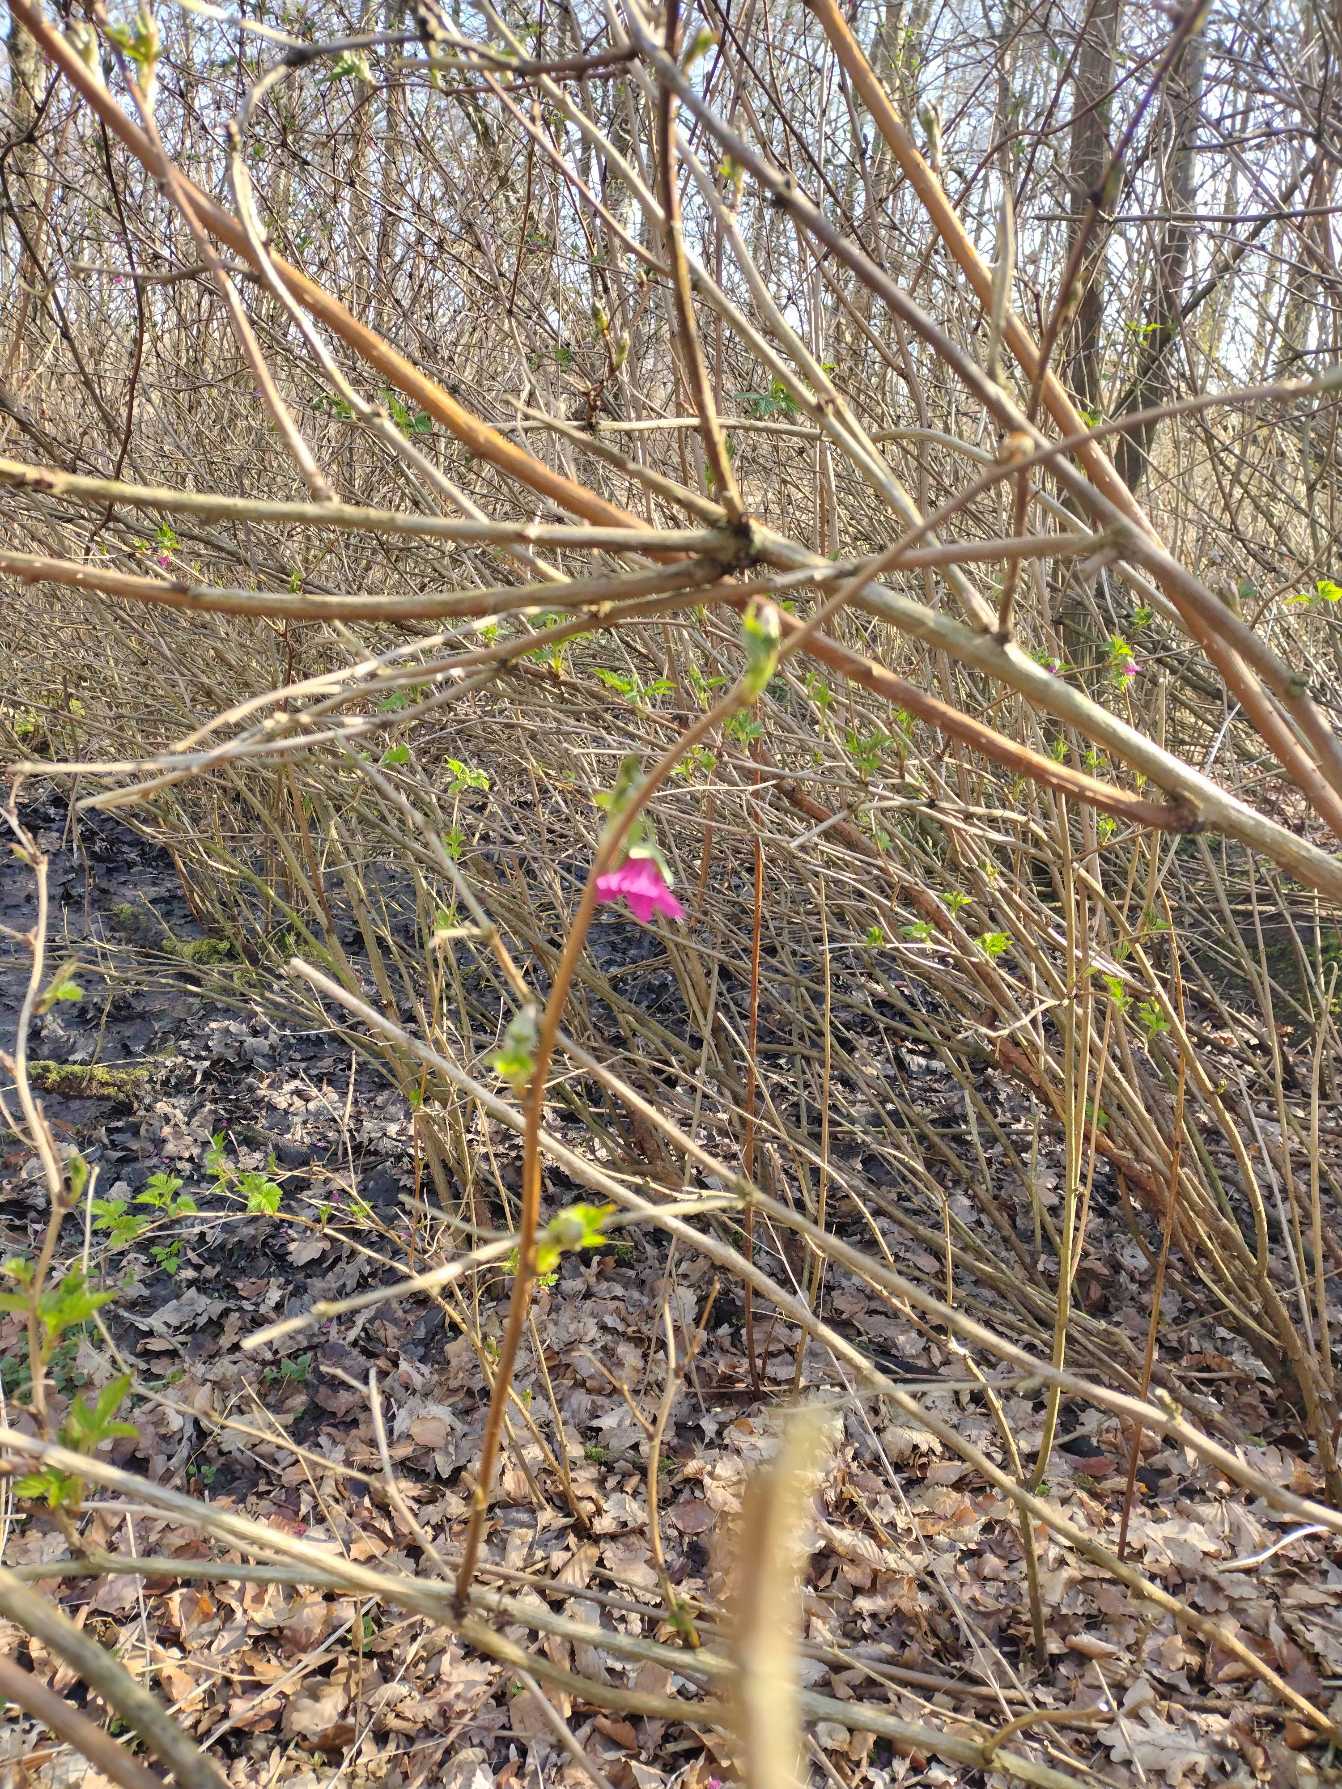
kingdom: Plantae
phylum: Tracheophyta
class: Magnoliopsida
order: Rosales
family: Rosaceae
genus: Rubus
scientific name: Rubus spectabilis
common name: Laksebær
